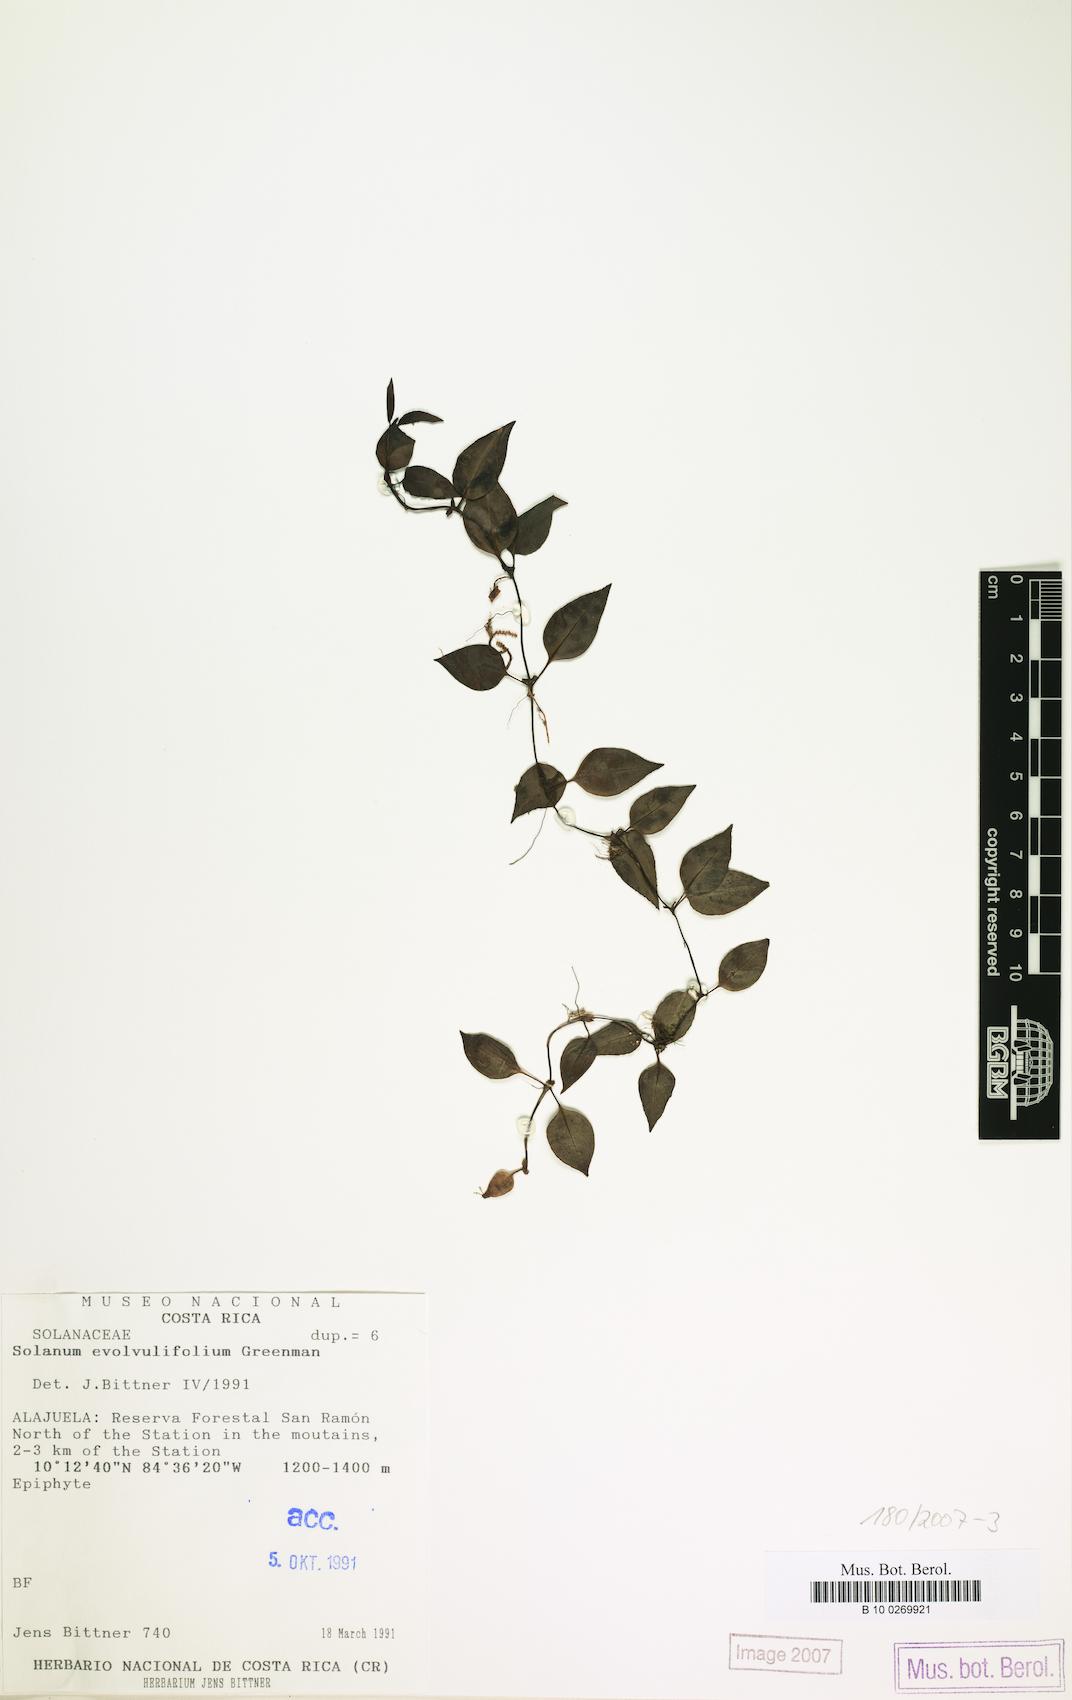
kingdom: Plantae
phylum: Tracheophyta
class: Magnoliopsida
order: Solanales
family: Solanaceae
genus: Solanum
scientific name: Solanum evolvulifolium
